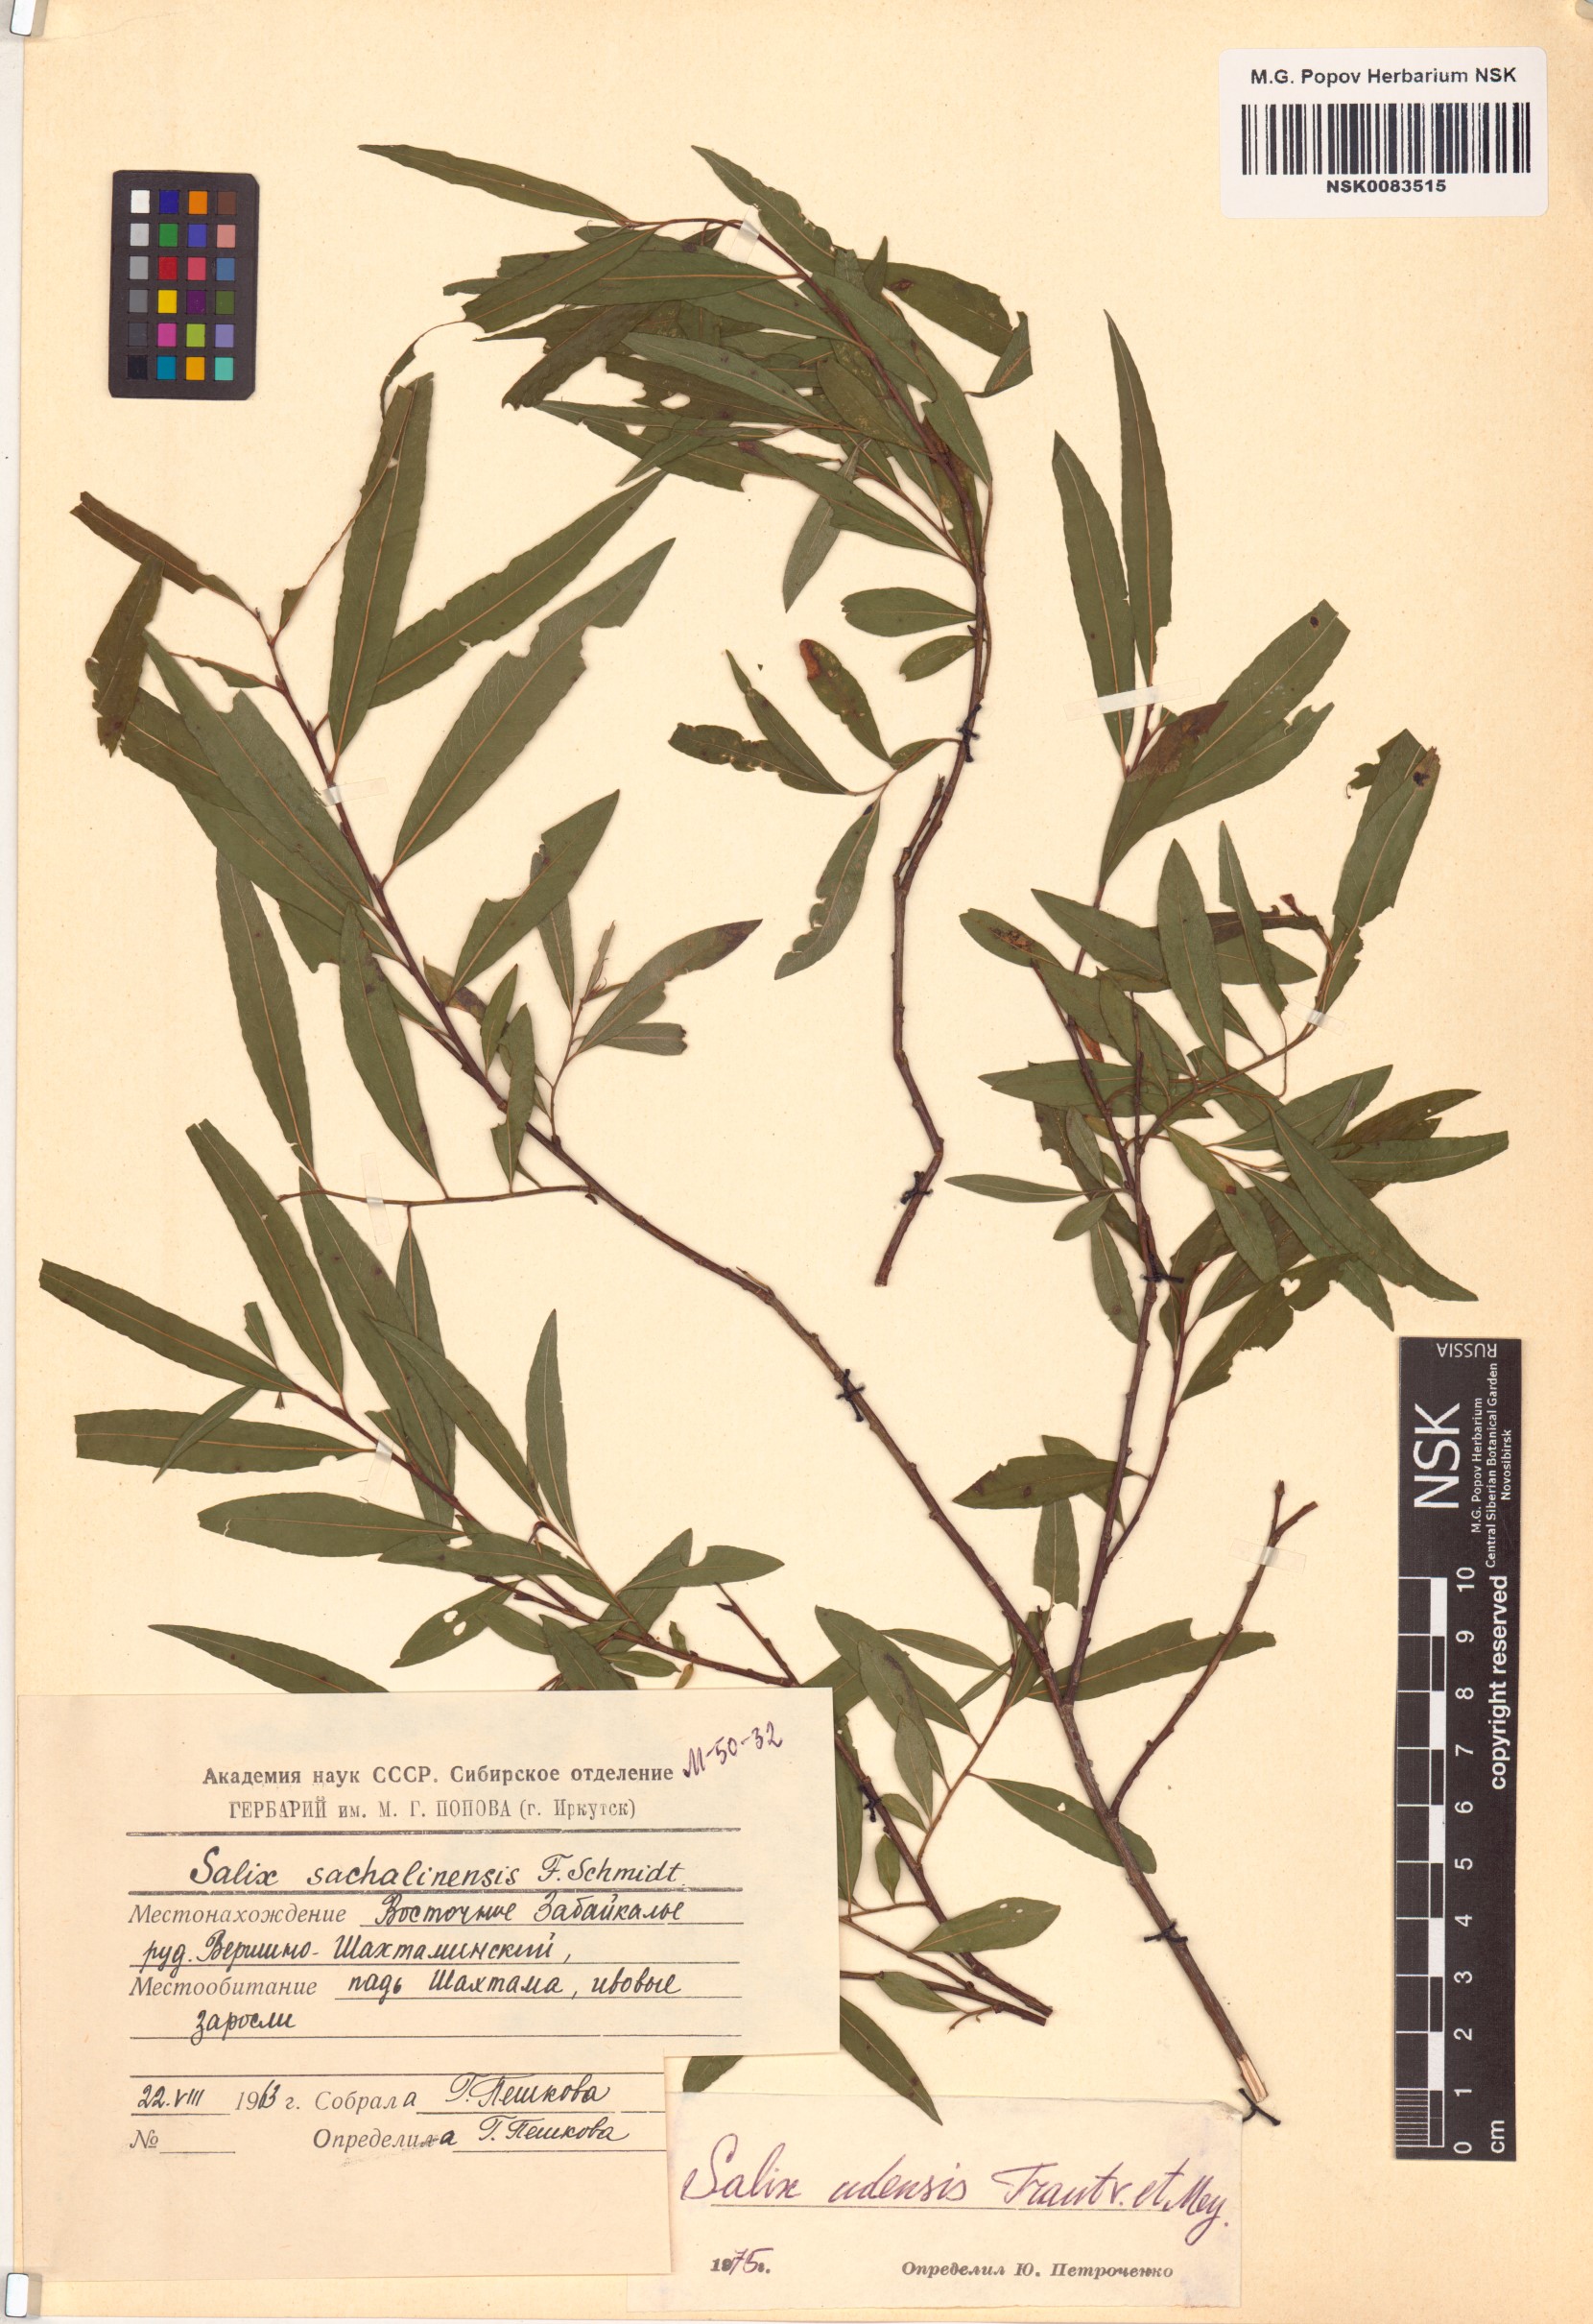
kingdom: Plantae
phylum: Tracheophyta
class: Magnoliopsida
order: Malpighiales
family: Salicaceae
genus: Salix
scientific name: Salix udensis
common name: Sachalin willow
